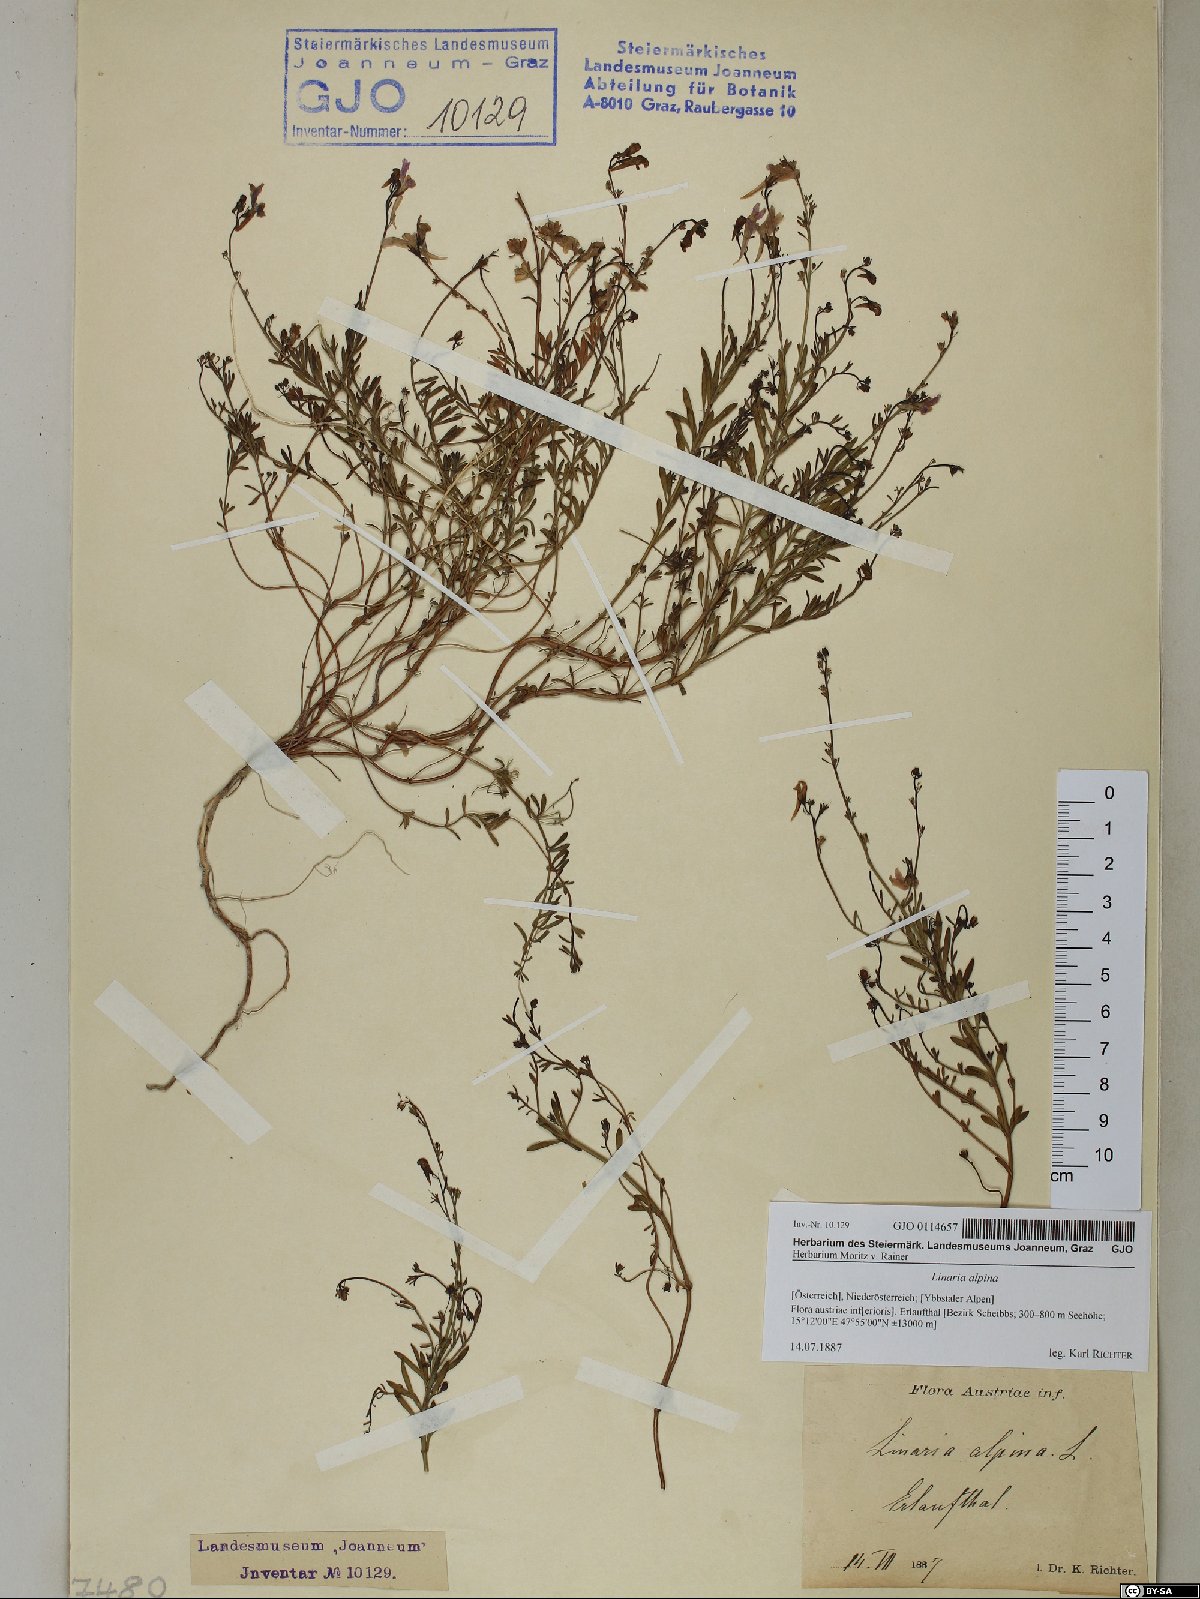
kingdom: Plantae
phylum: Tracheophyta
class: Magnoliopsida
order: Lamiales
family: Plantaginaceae
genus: Linaria
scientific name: Linaria alpina
